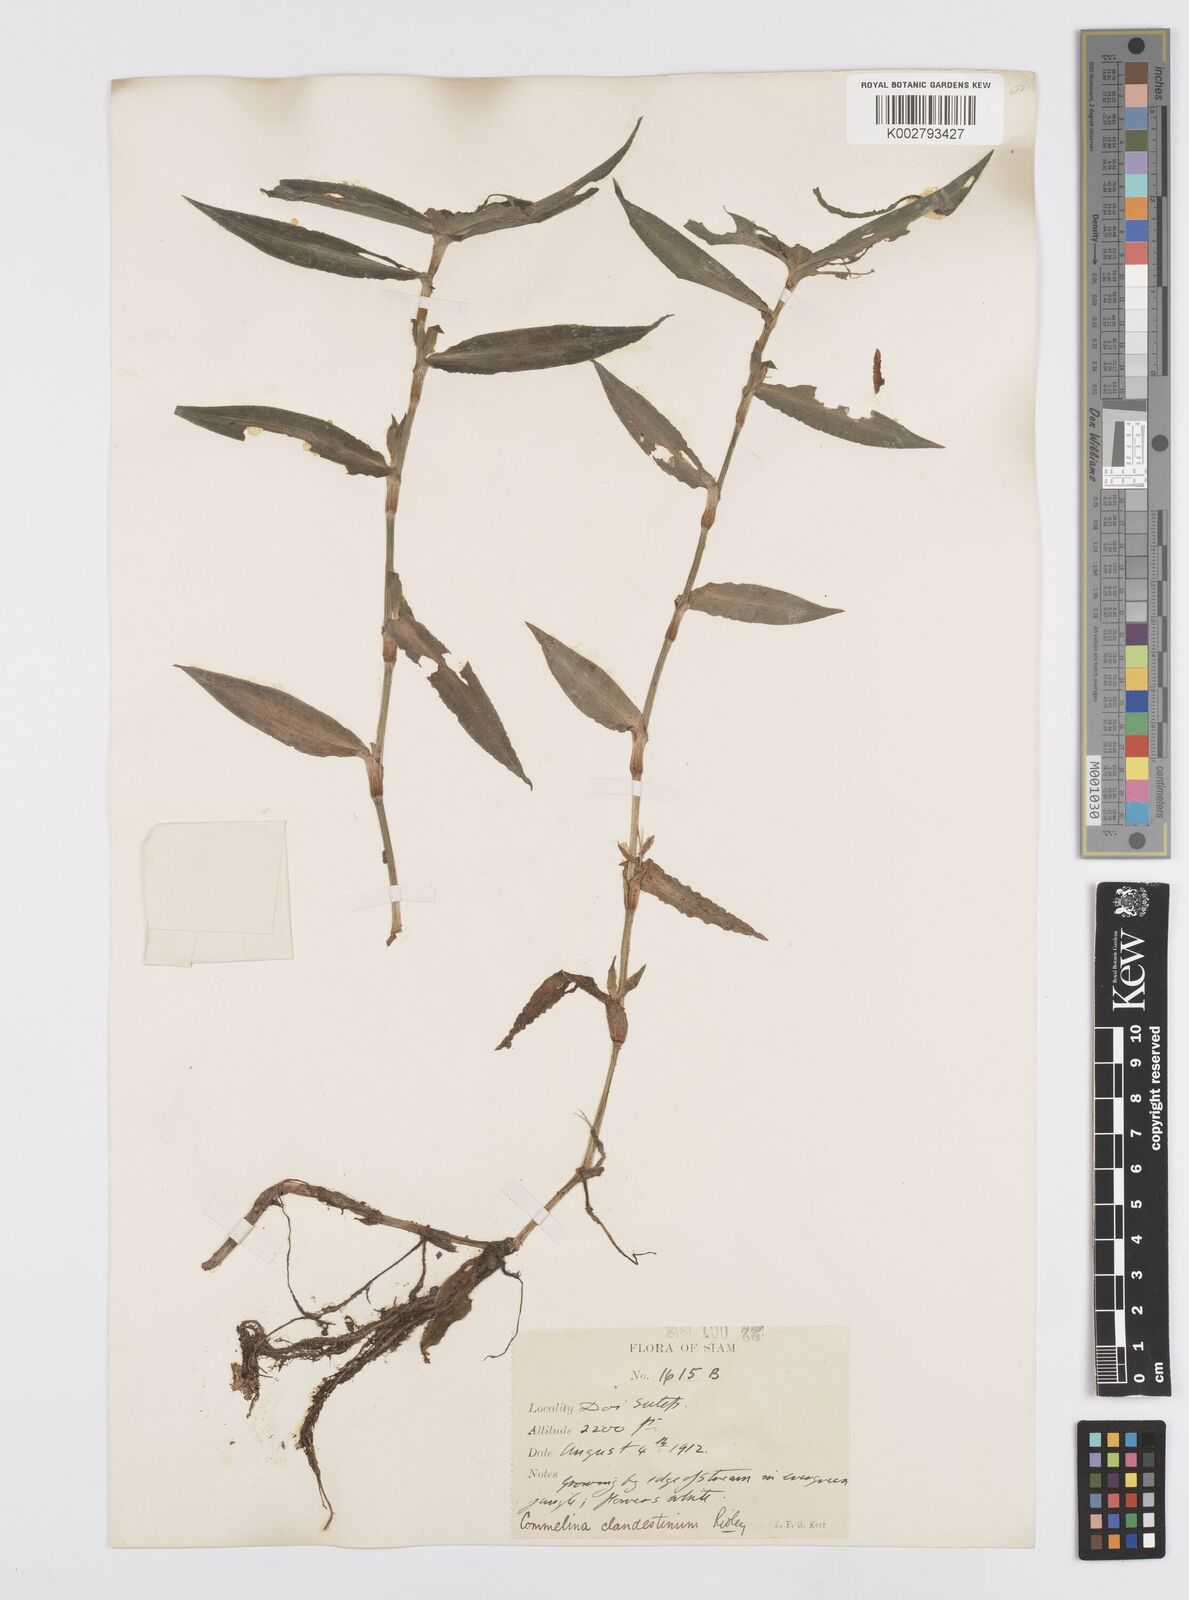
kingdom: Plantae
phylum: Tracheophyta
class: Liliopsida
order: Commelinales
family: Commelinaceae
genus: Murdannia
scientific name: Murdannia clandestina
